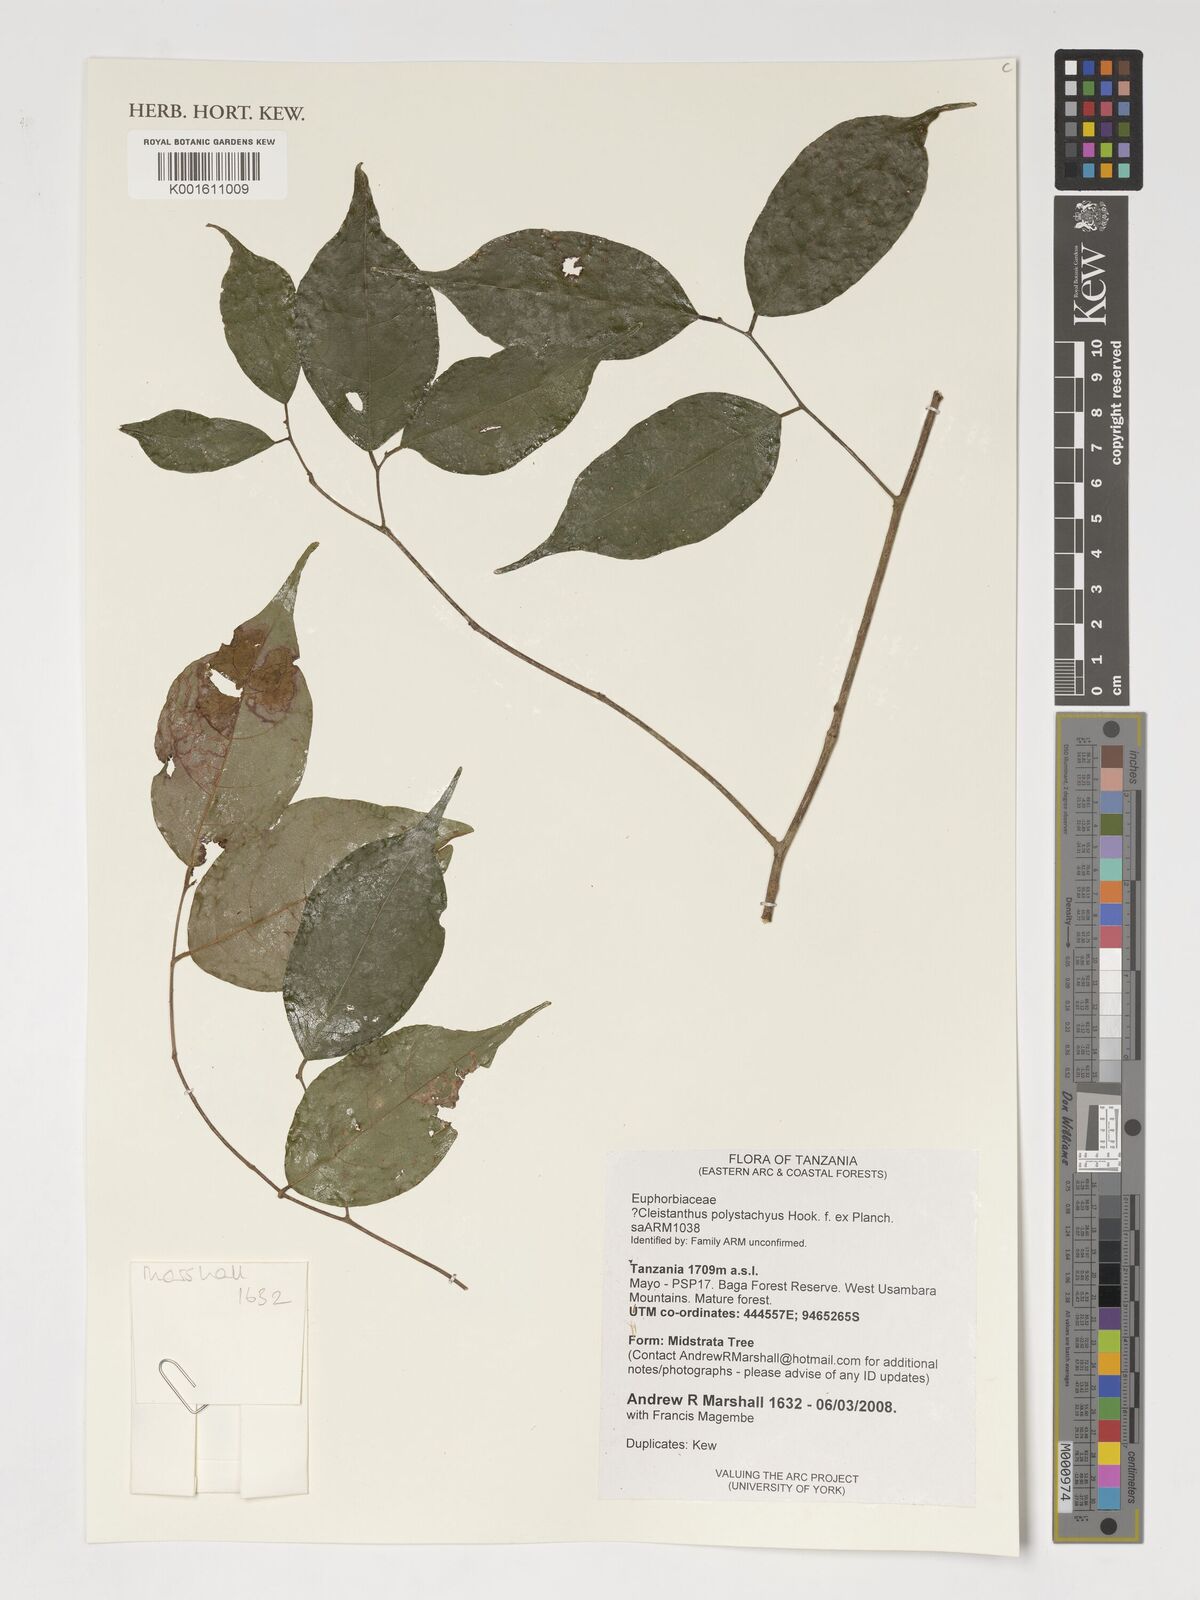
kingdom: Plantae
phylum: Tracheophyta
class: Magnoliopsida
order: Malpighiales
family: Phyllanthaceae
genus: Cleistanthus
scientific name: Cleistanthus polystachyus
